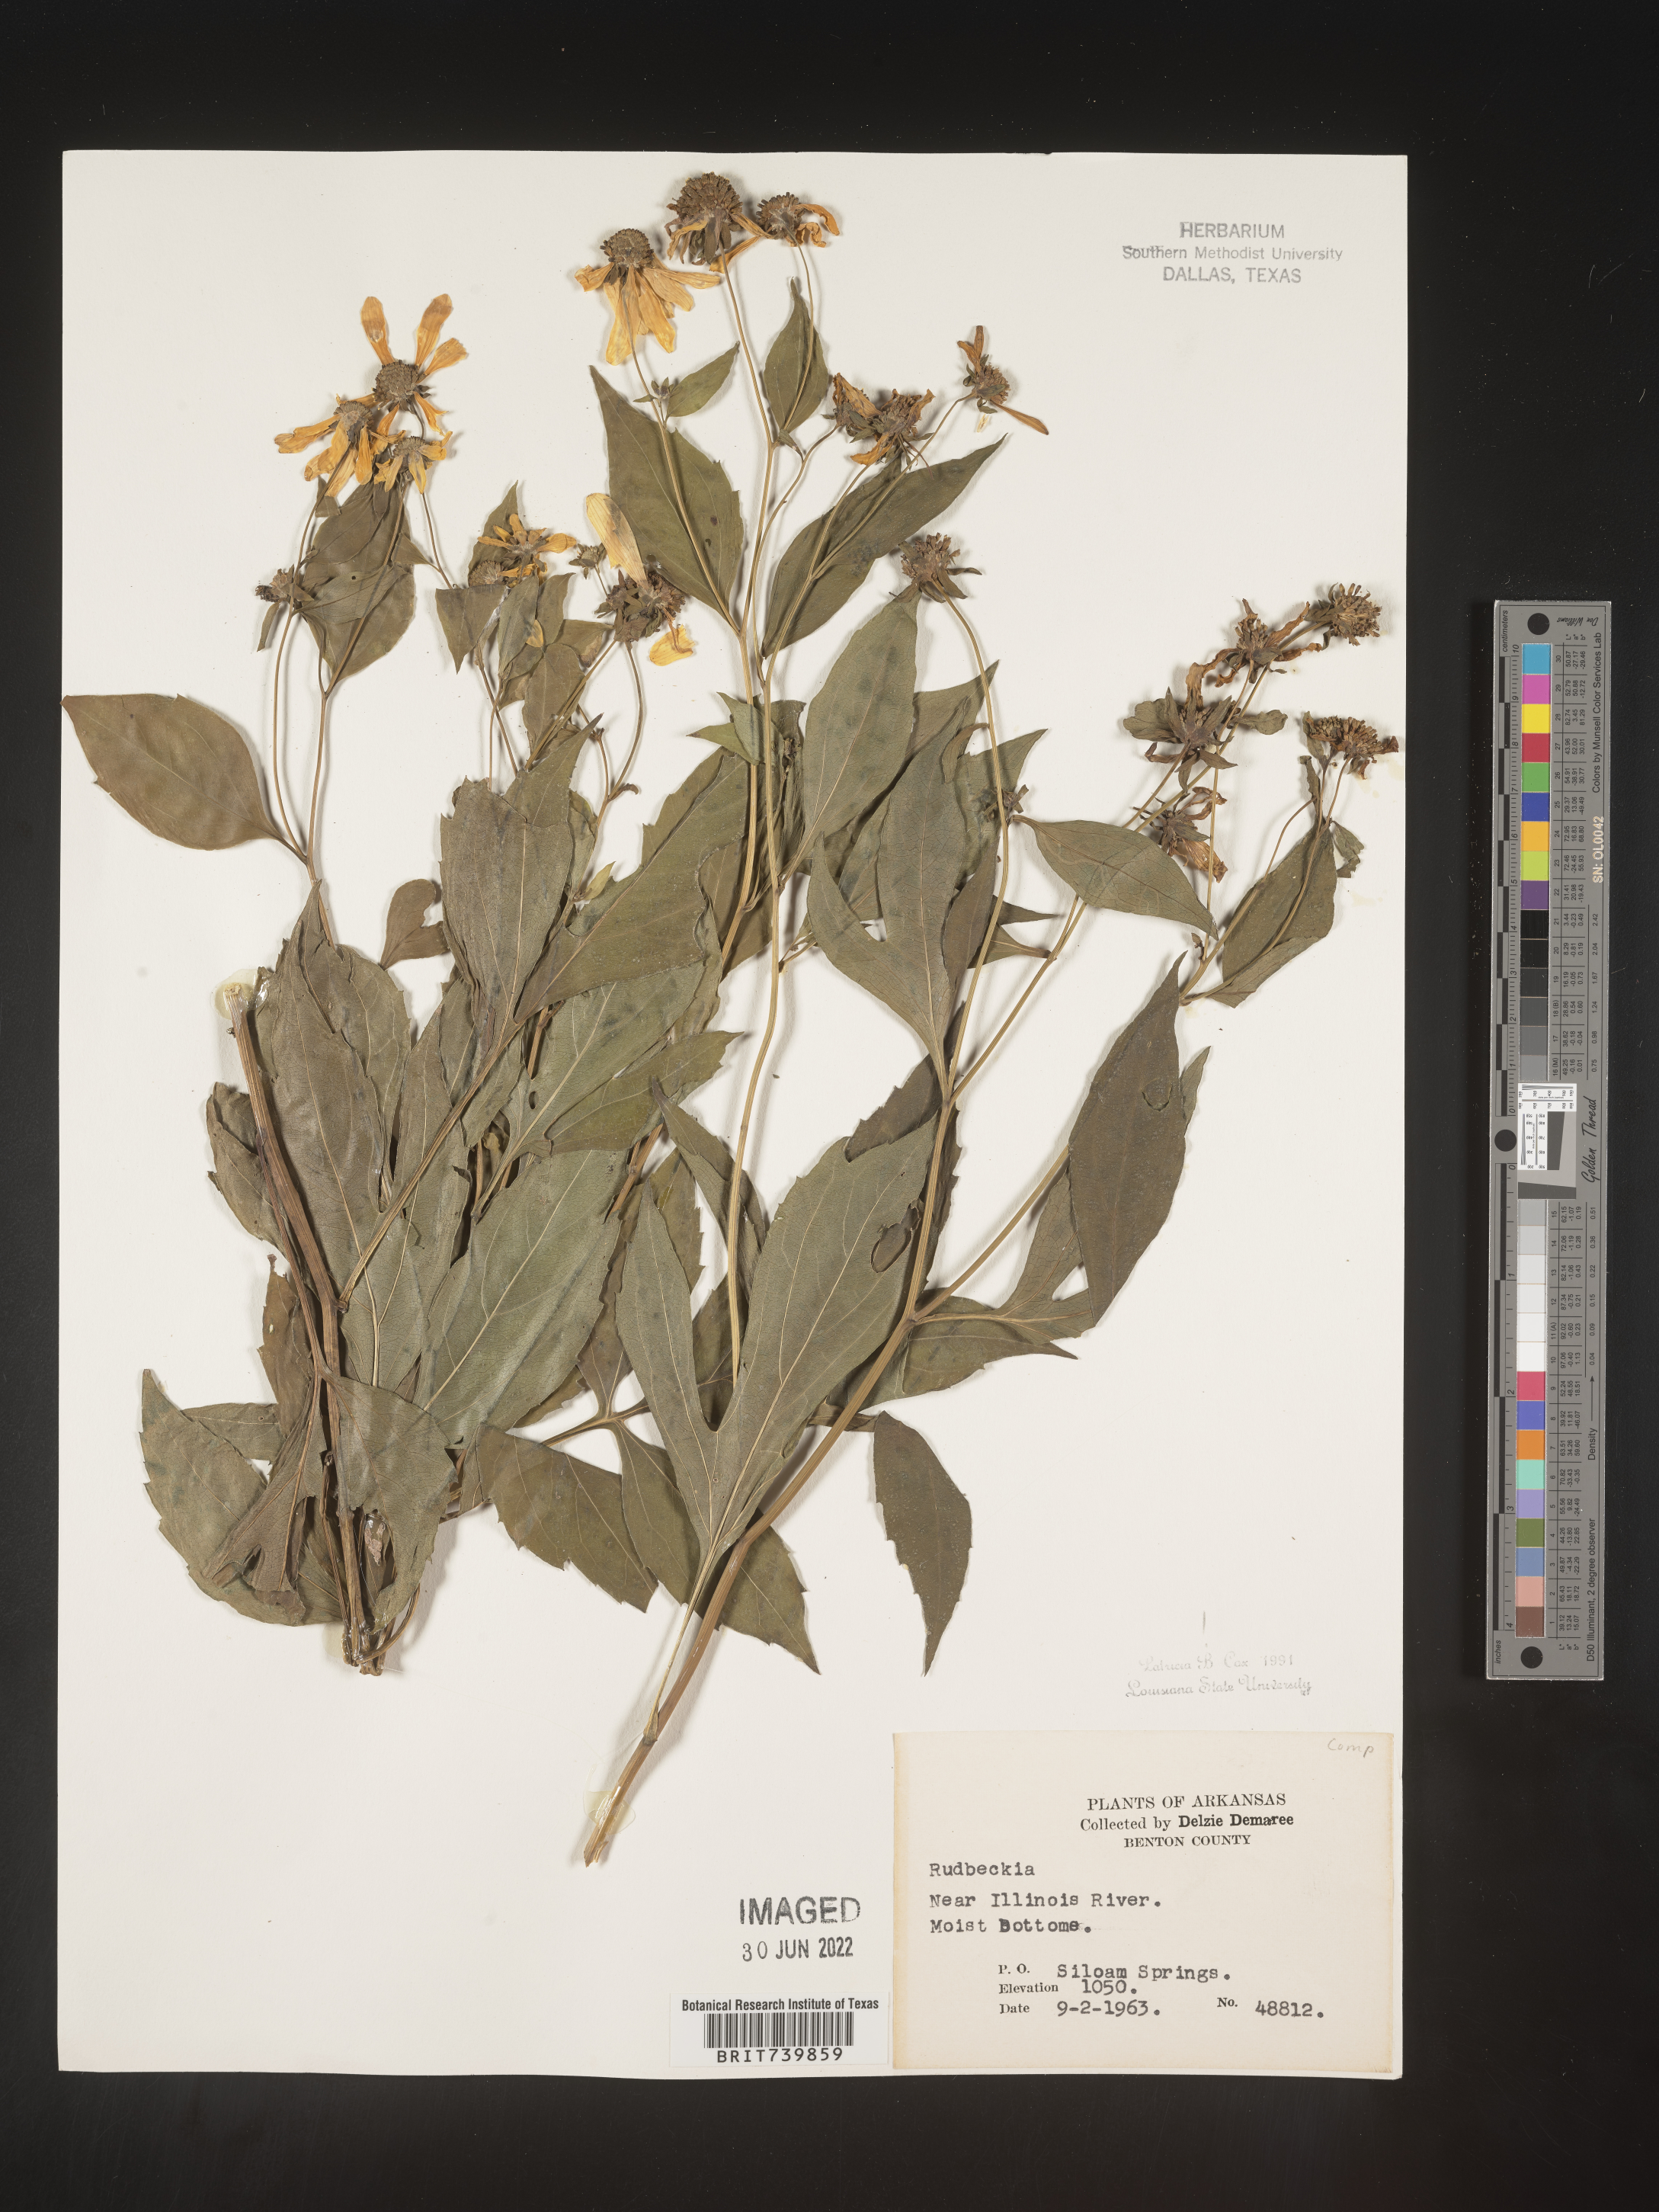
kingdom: Plantae
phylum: Tracheophyta
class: Magnoliopsida
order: Asterales
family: Asteraceae
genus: Rudbeckia
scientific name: Rudbeckia
